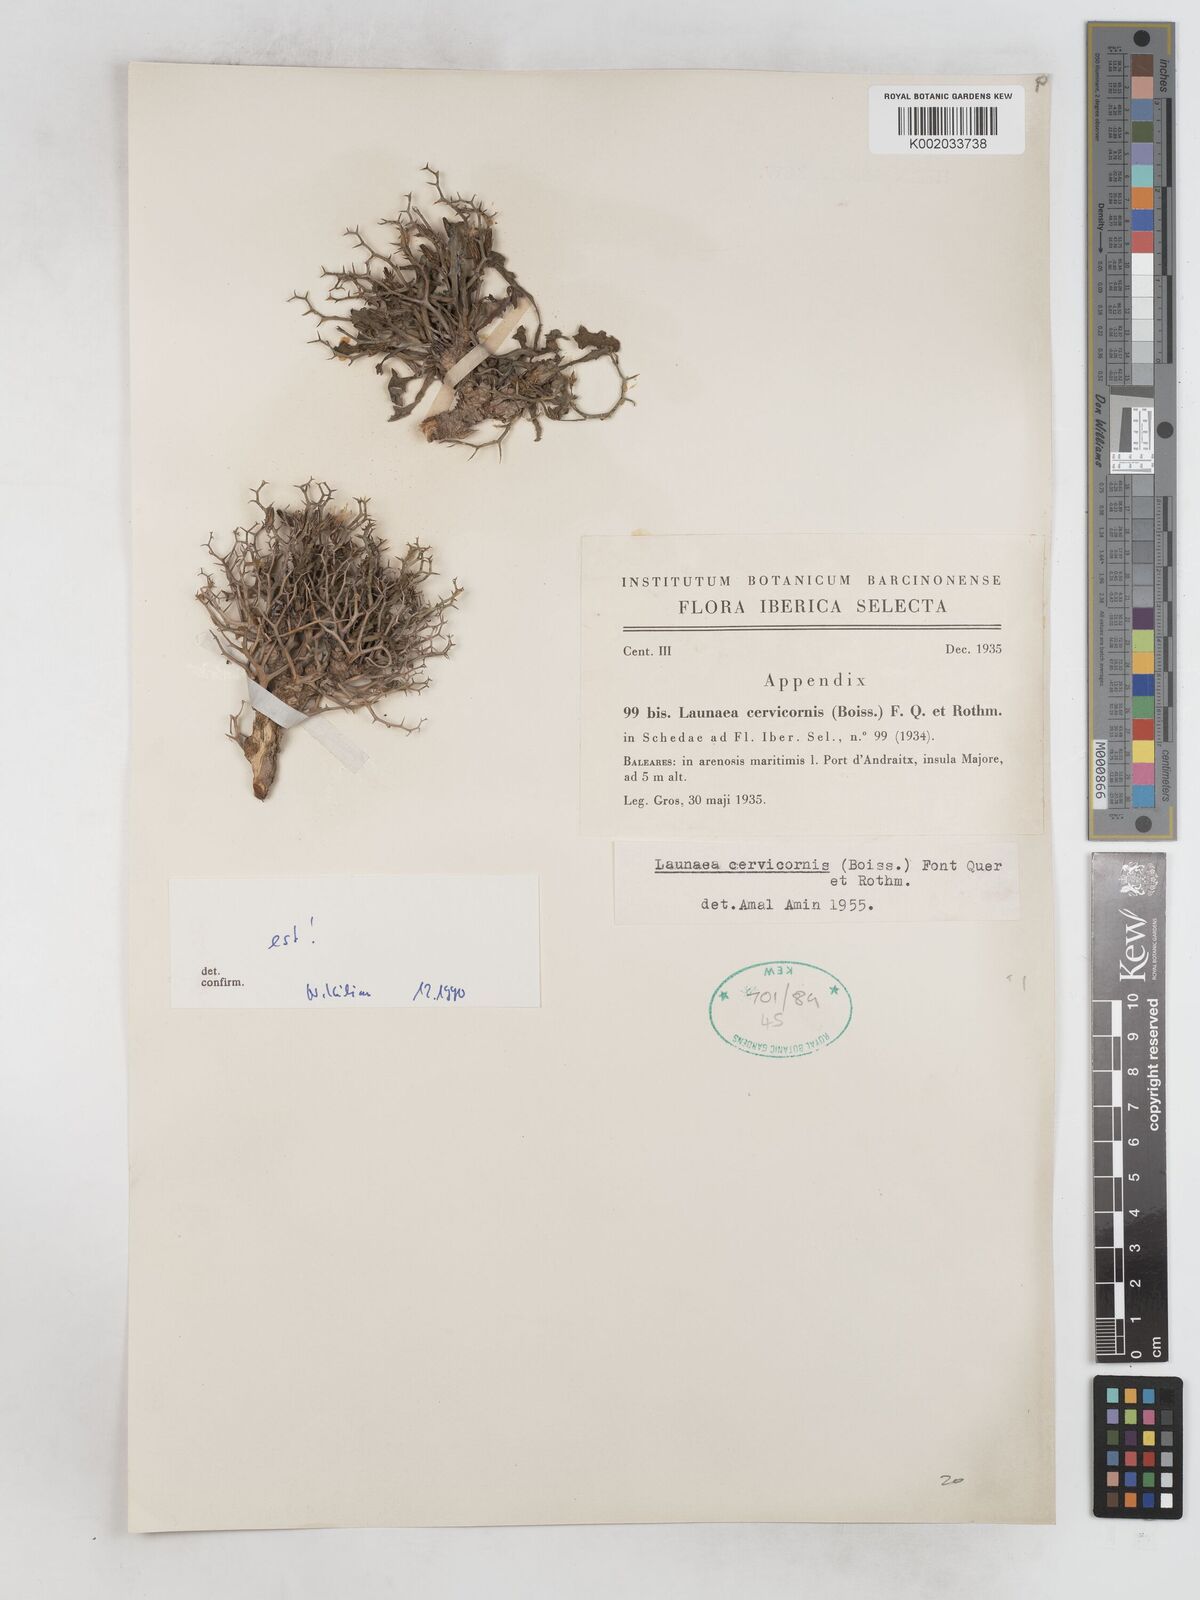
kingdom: Plantae
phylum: Tracheophyta
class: Magnoliopsida
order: Asterales
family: Asteraceae
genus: Launaea
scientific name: Launaea cervicornis
